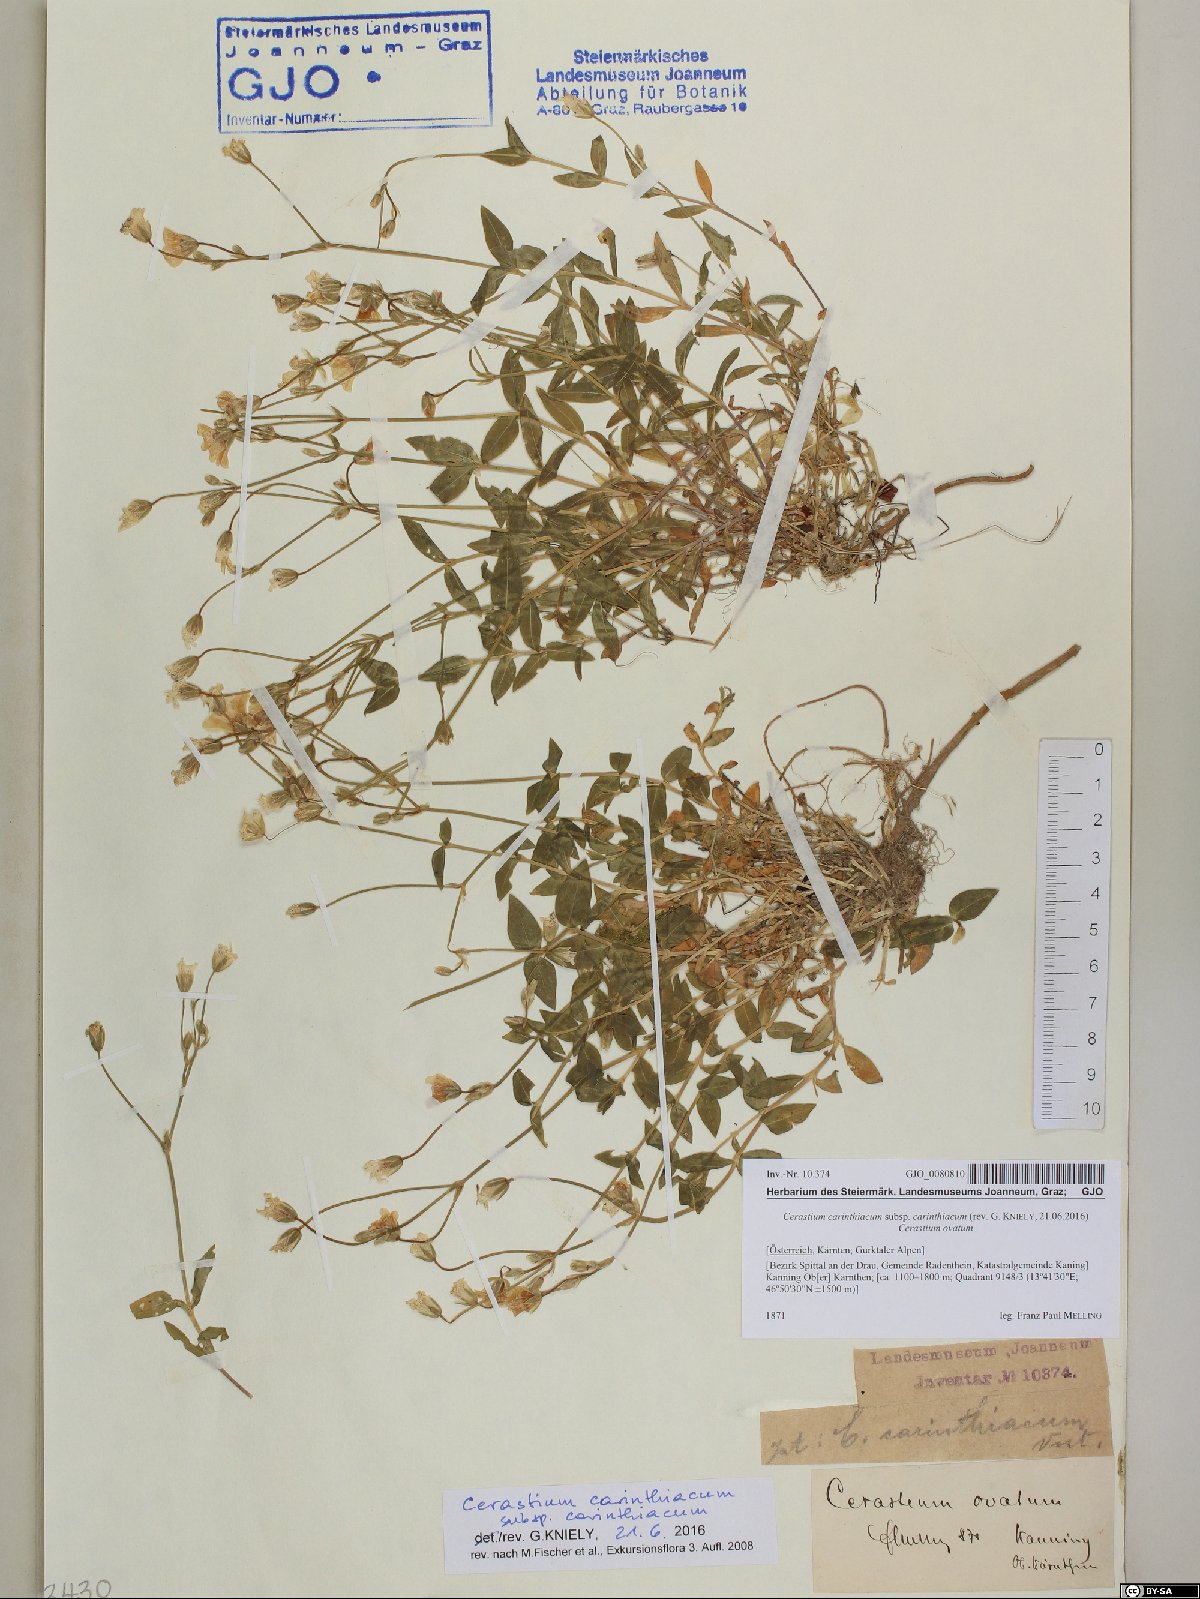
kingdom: Plantae
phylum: Tracheophyta
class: Magnoliopsida
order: Caryophyllales
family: Caryophyllaceae
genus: Cerastium
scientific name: Cerastium carinthiacum
